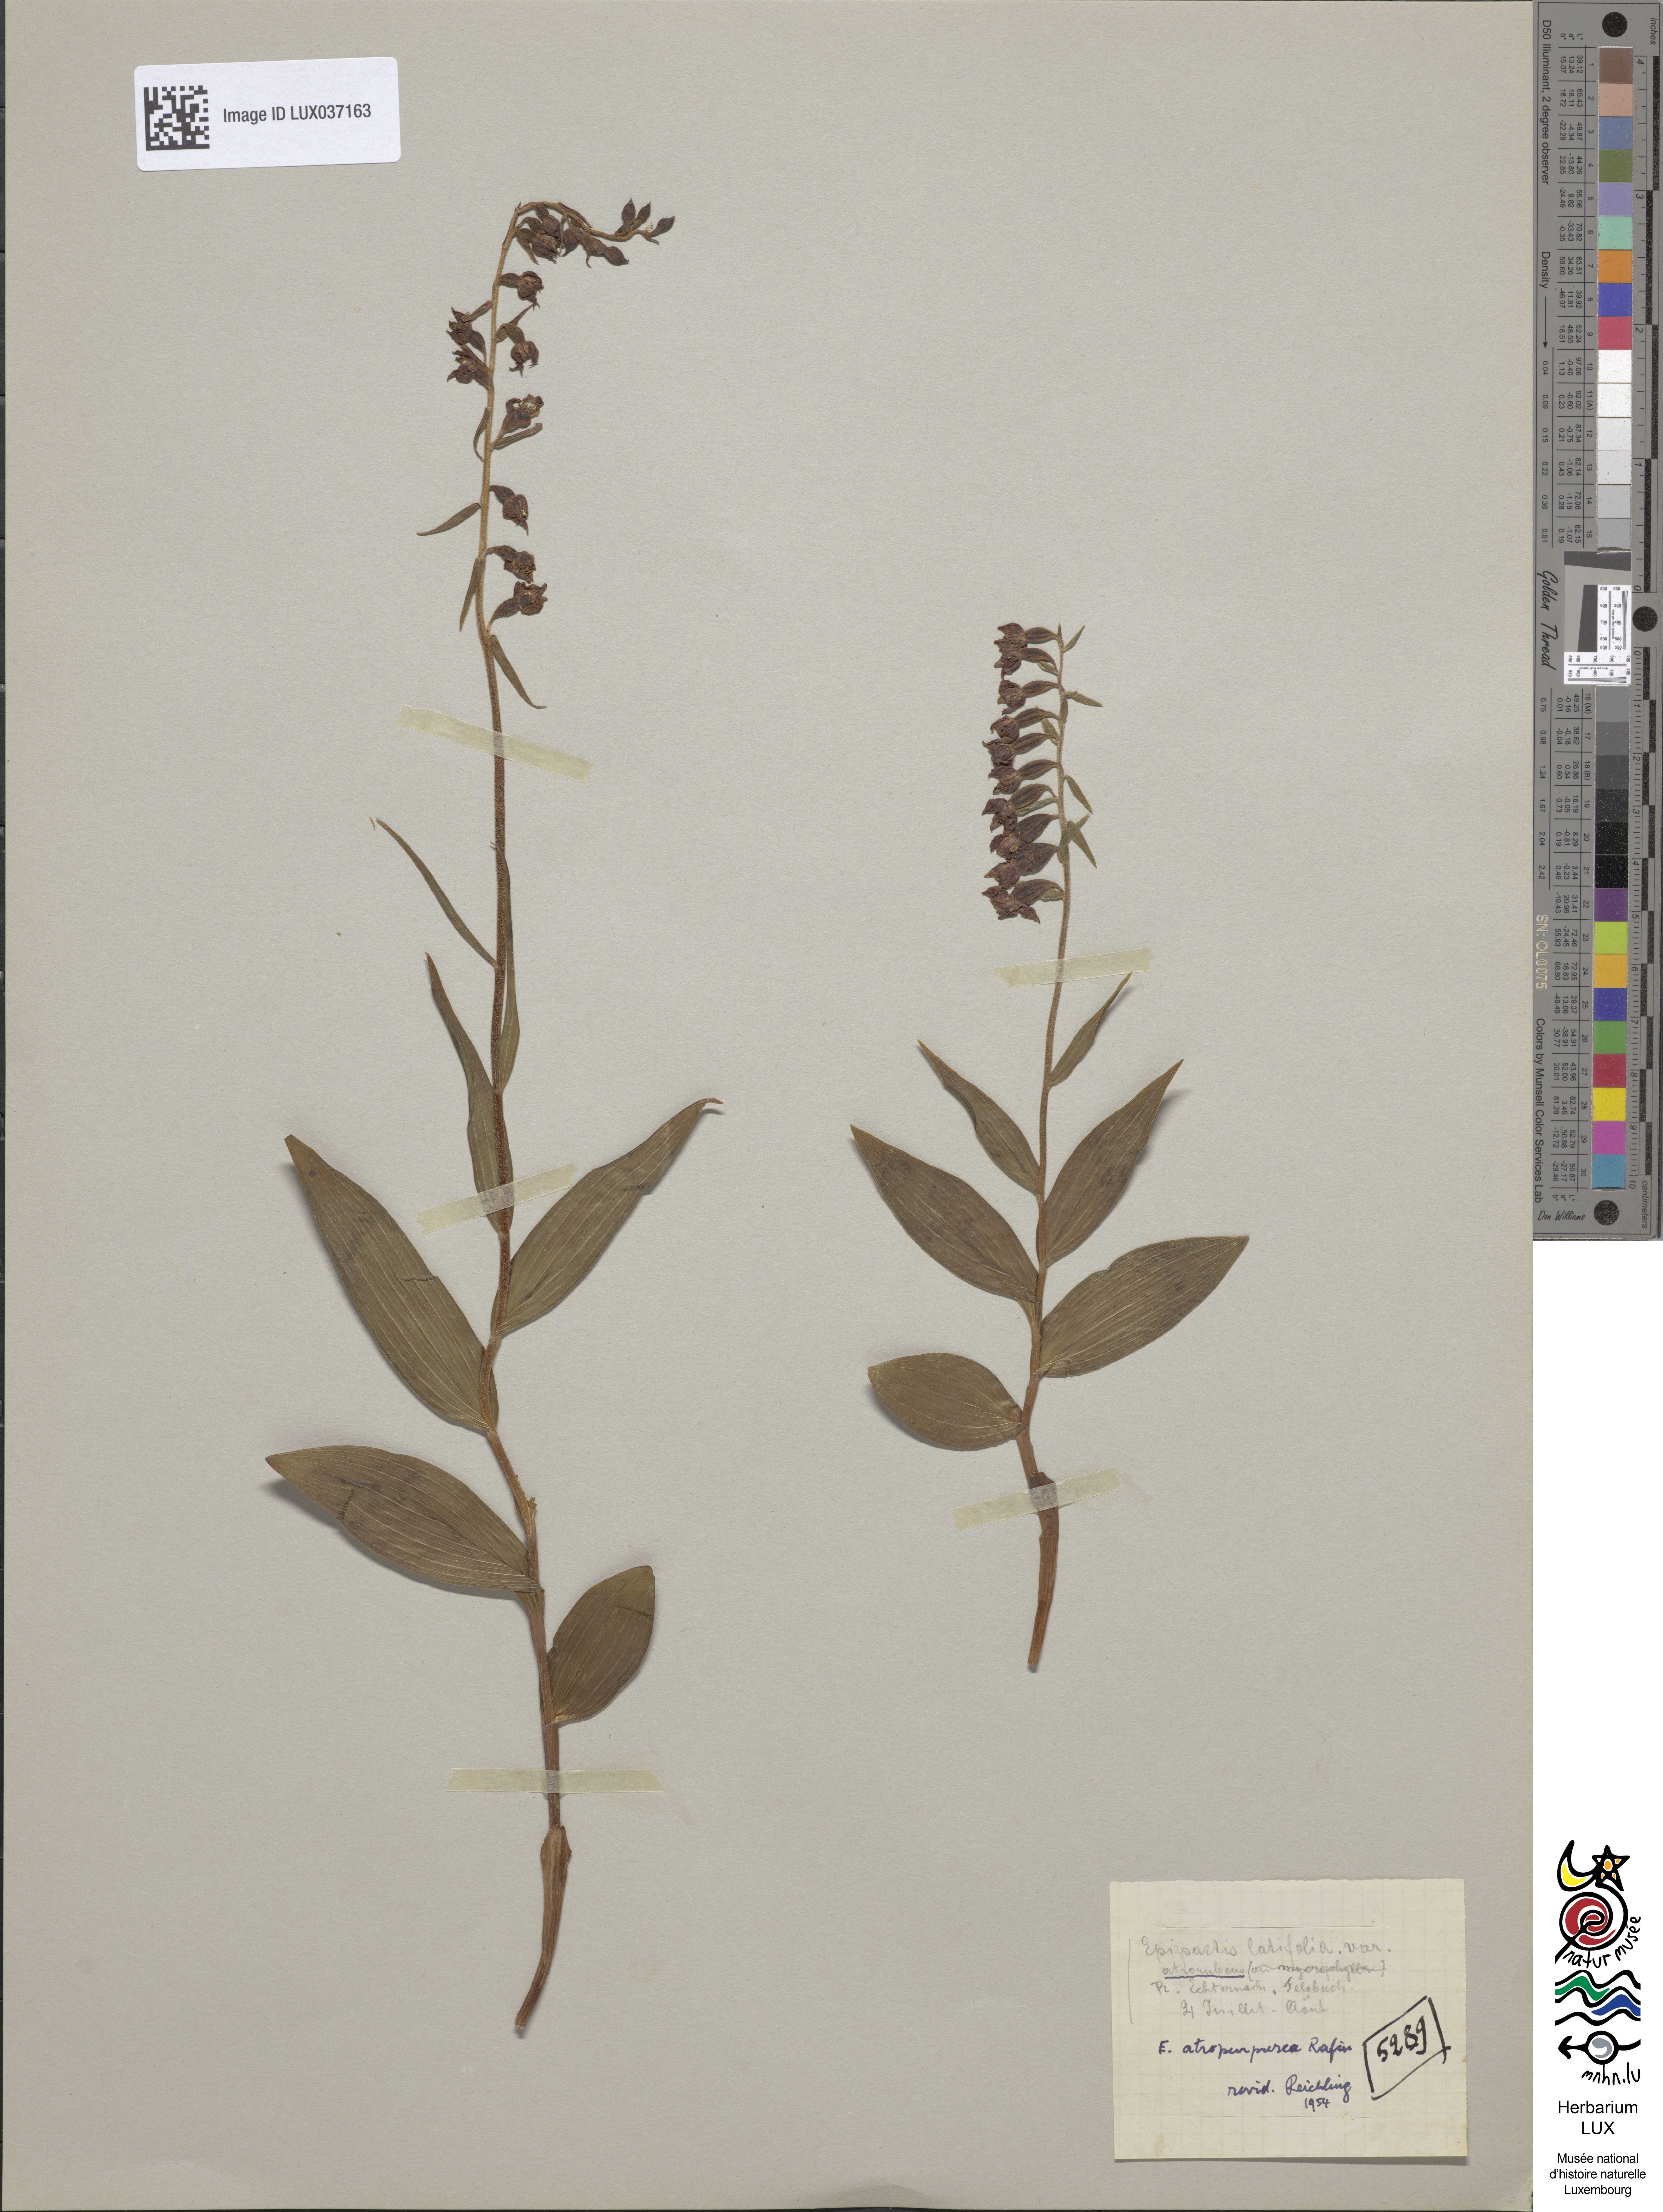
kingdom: Plantae
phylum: Tracheophyta
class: Liliopsida
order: Asparagales
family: Orchidaceae
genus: Epipactis
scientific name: Epipactis atrorubens
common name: Dark-red helleborine
